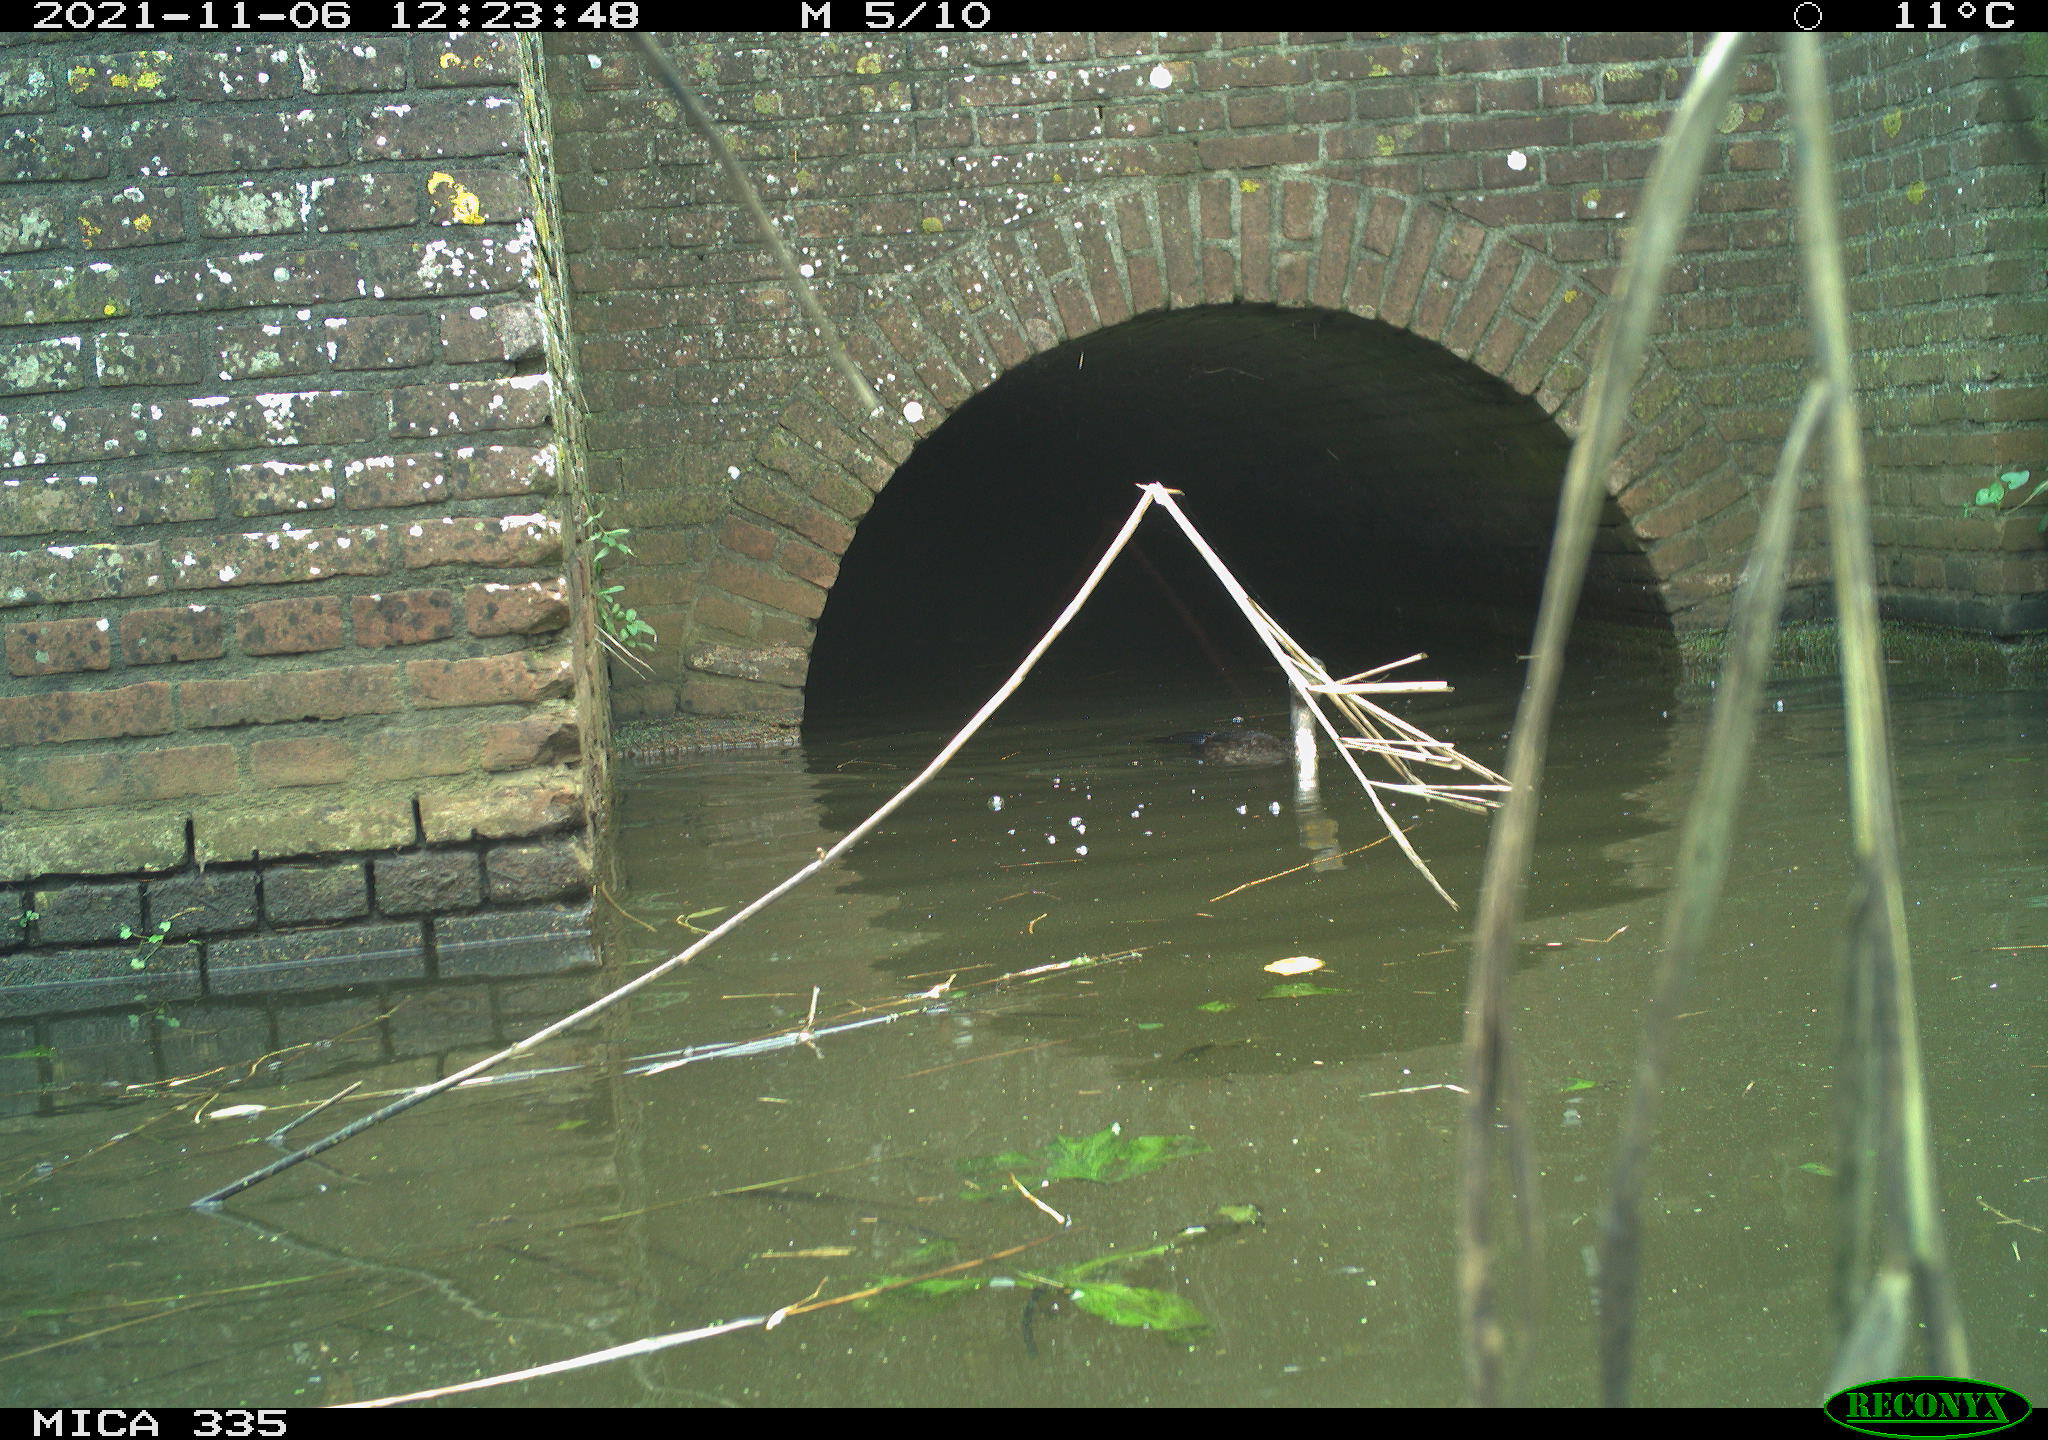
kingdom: Animalia
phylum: Chordata
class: Aves
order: Suliformes
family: Phalacrocoracidae
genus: Phalacrocorax
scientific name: Phalacrocorax carbo
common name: Great cormorant
